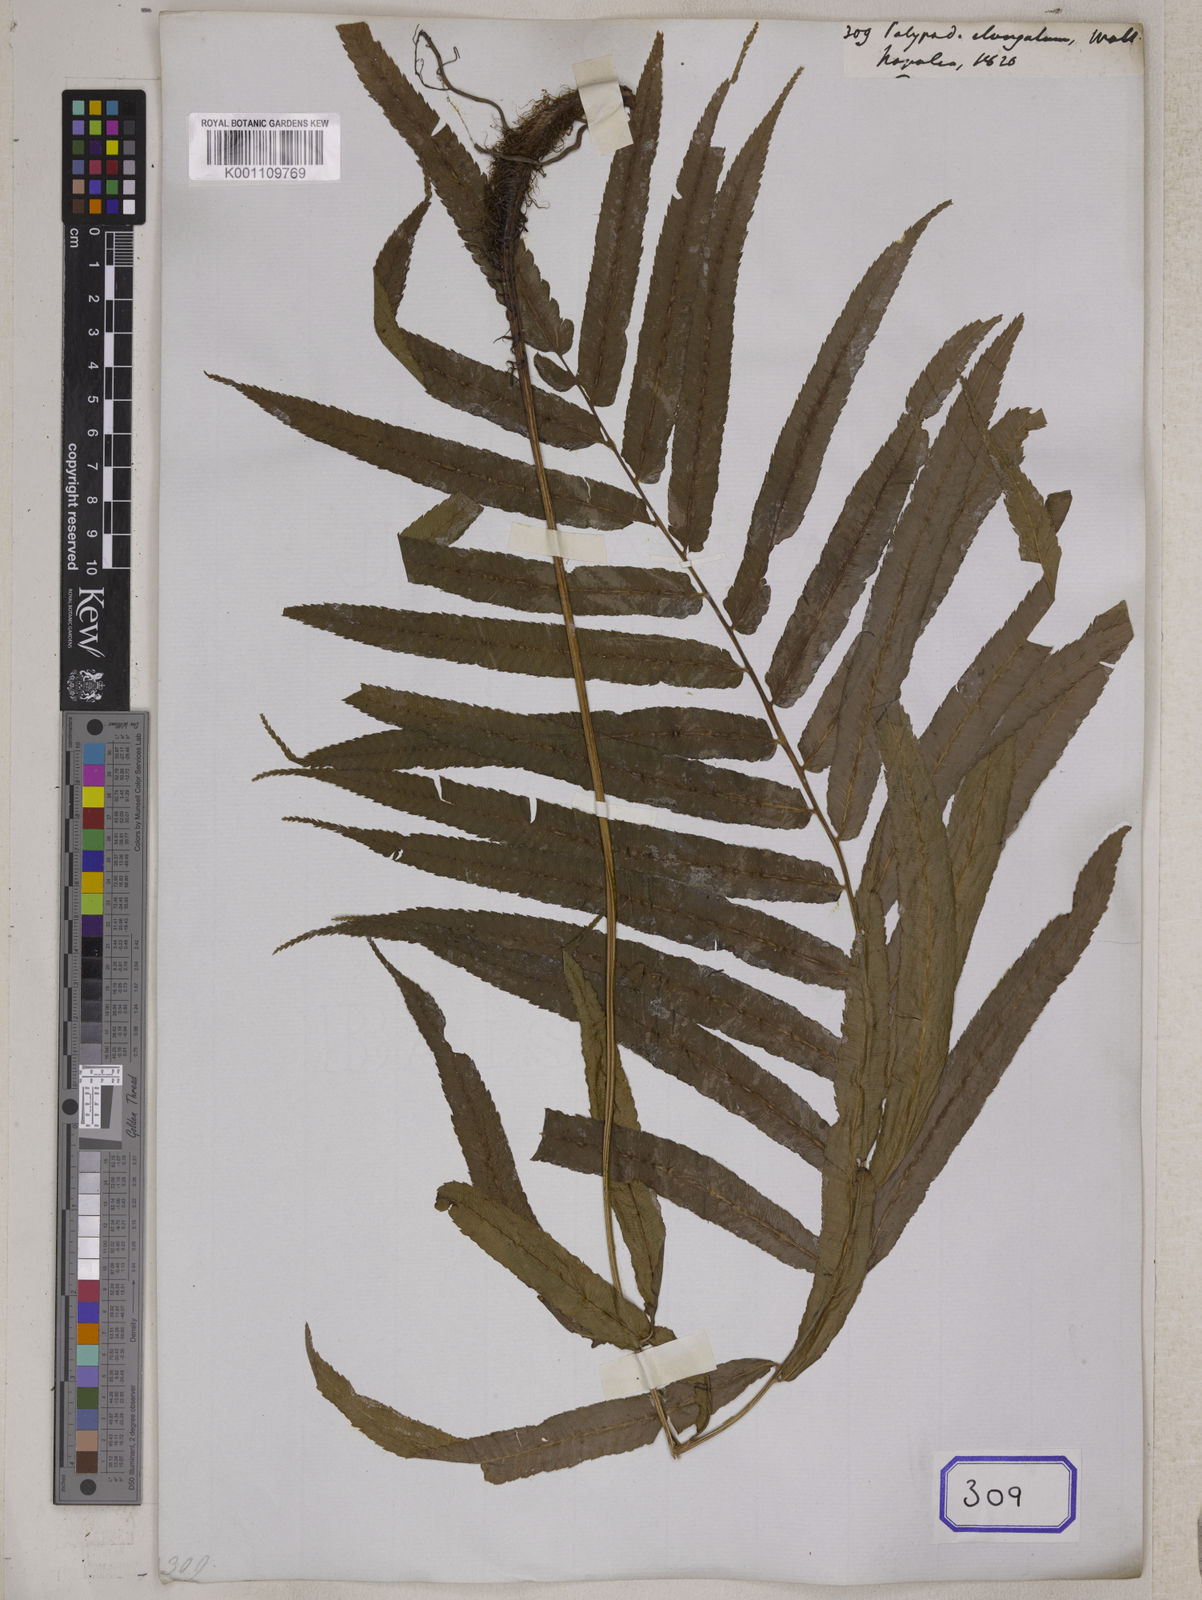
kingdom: Plantae
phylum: Tracheophyta
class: Polypodiopsida
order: Polypodiales
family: Athyriaceae
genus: Anisocampium
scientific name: Anisocampium cuspidatum
